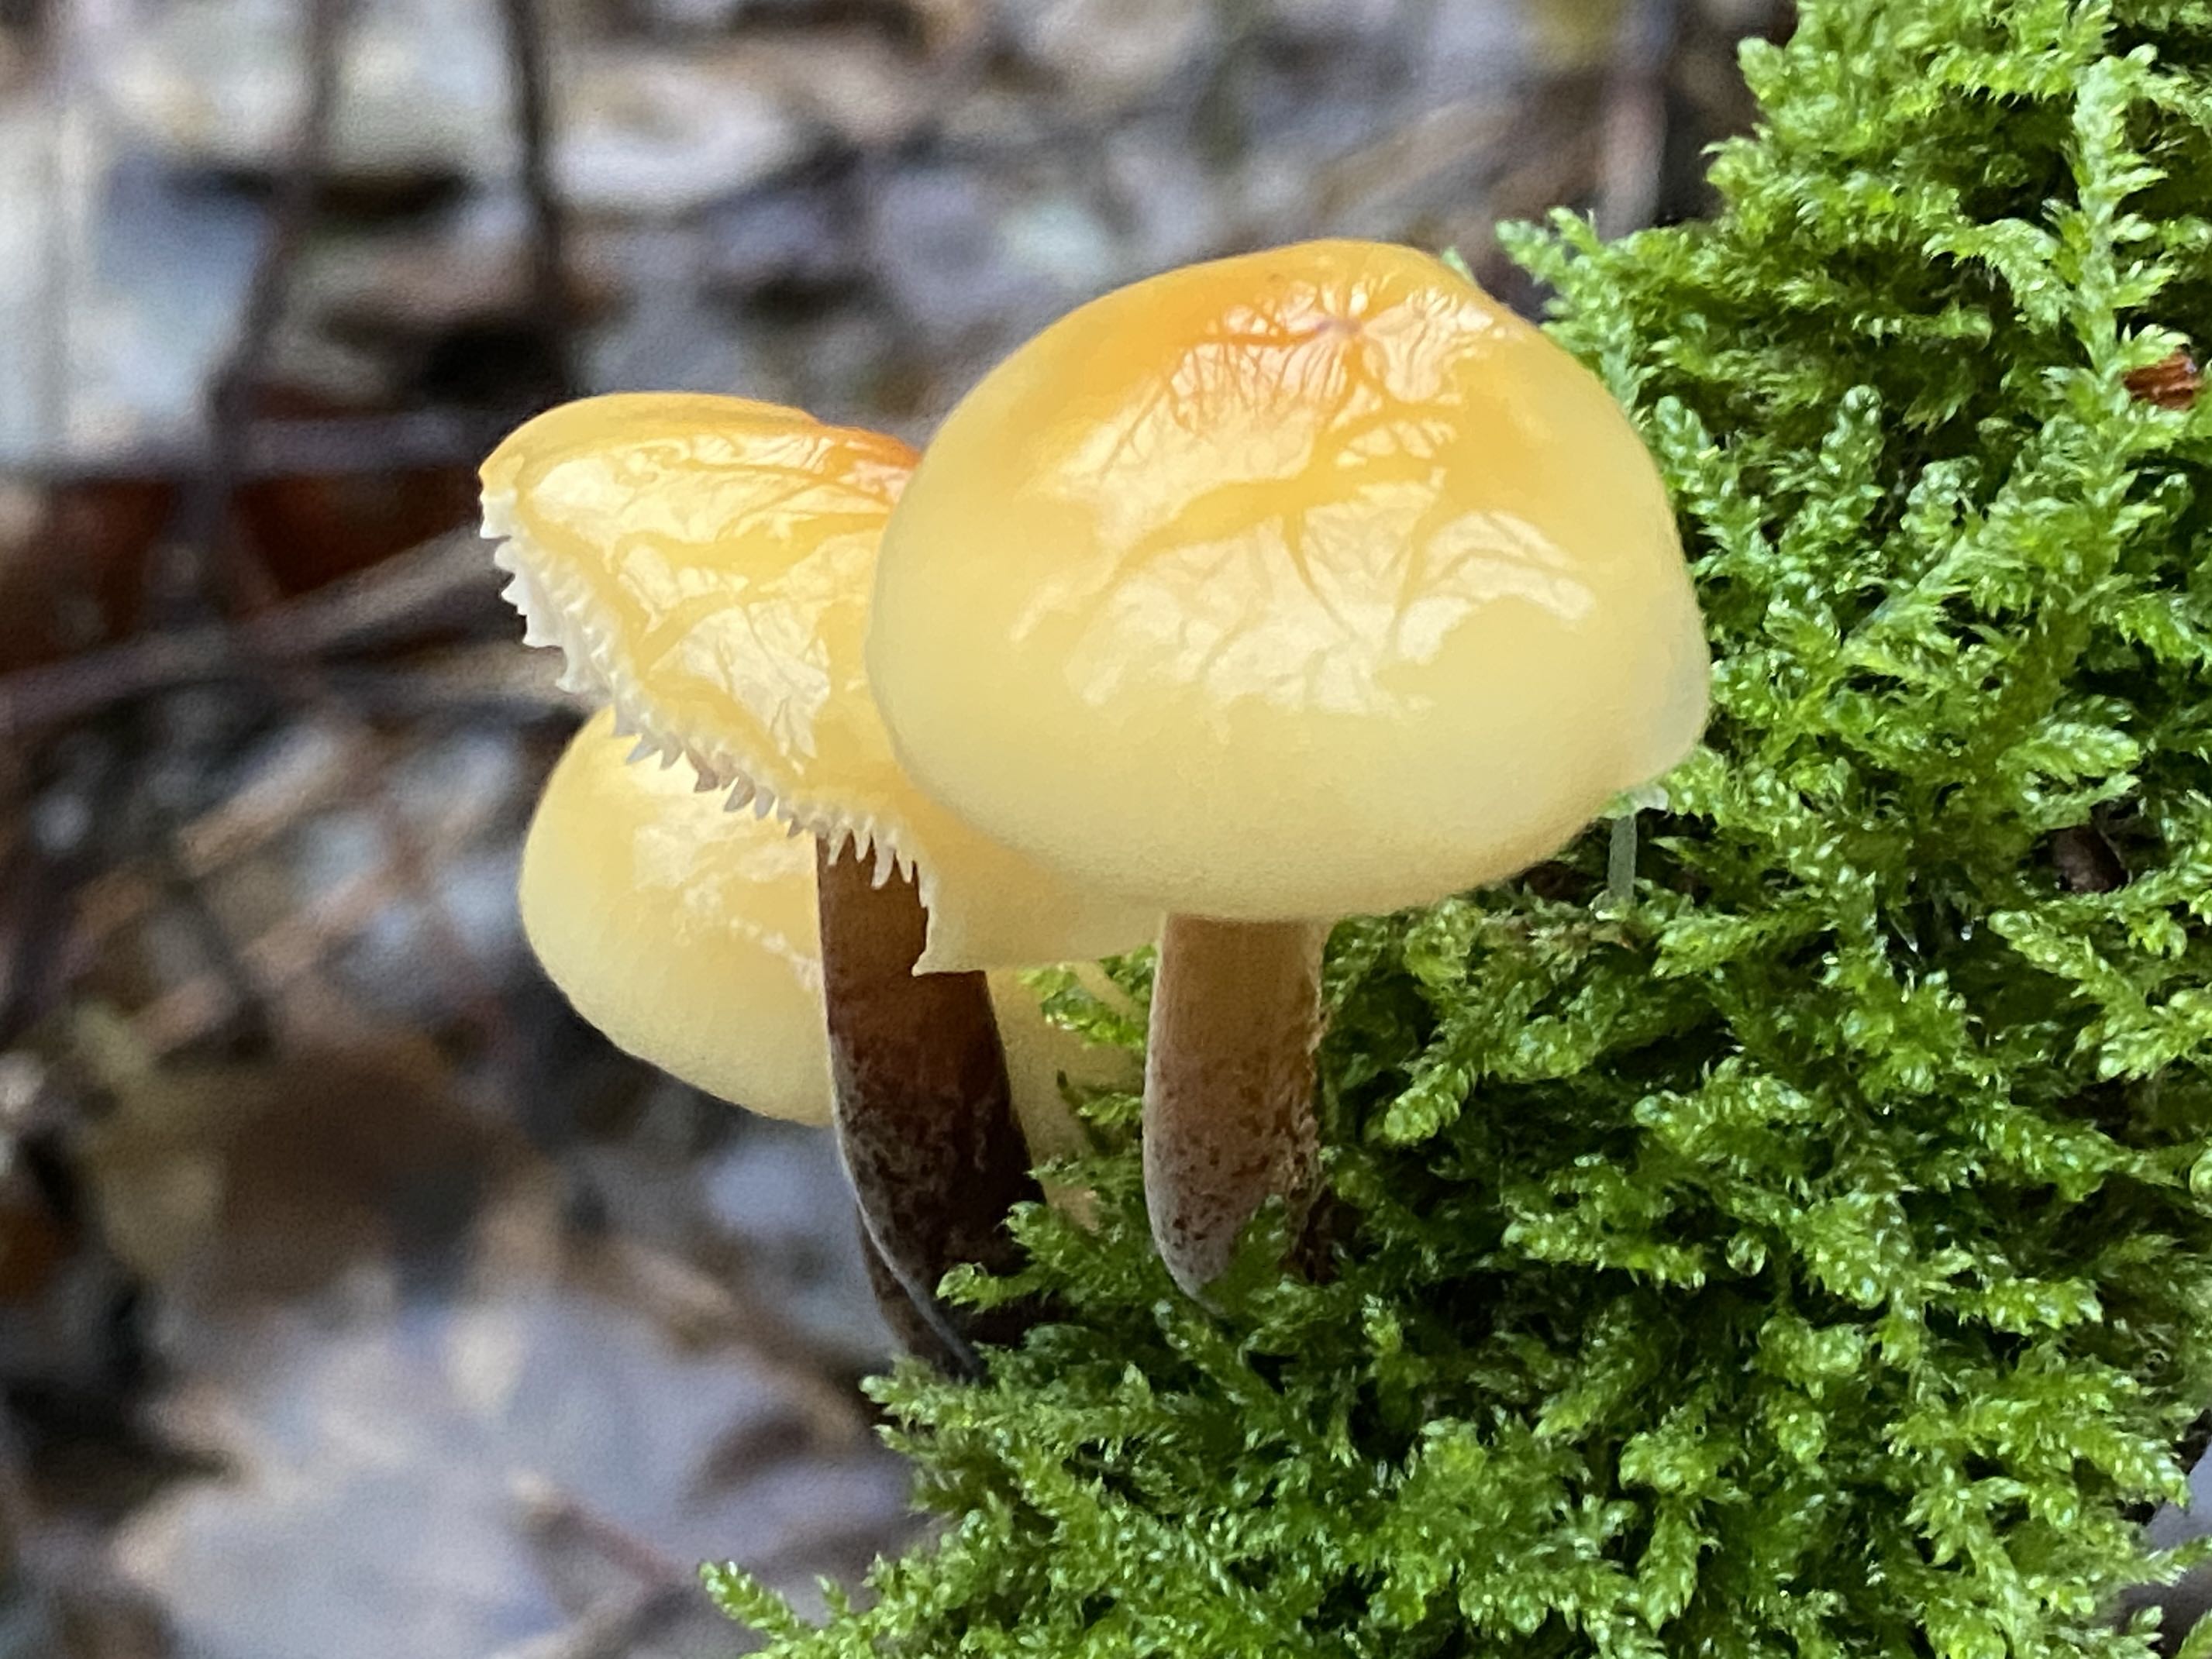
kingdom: Fungi
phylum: Basidiomycota
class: Agaricomycetes
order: Agaricales
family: Physalacriaceae
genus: Flammulina
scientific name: Flammulina
